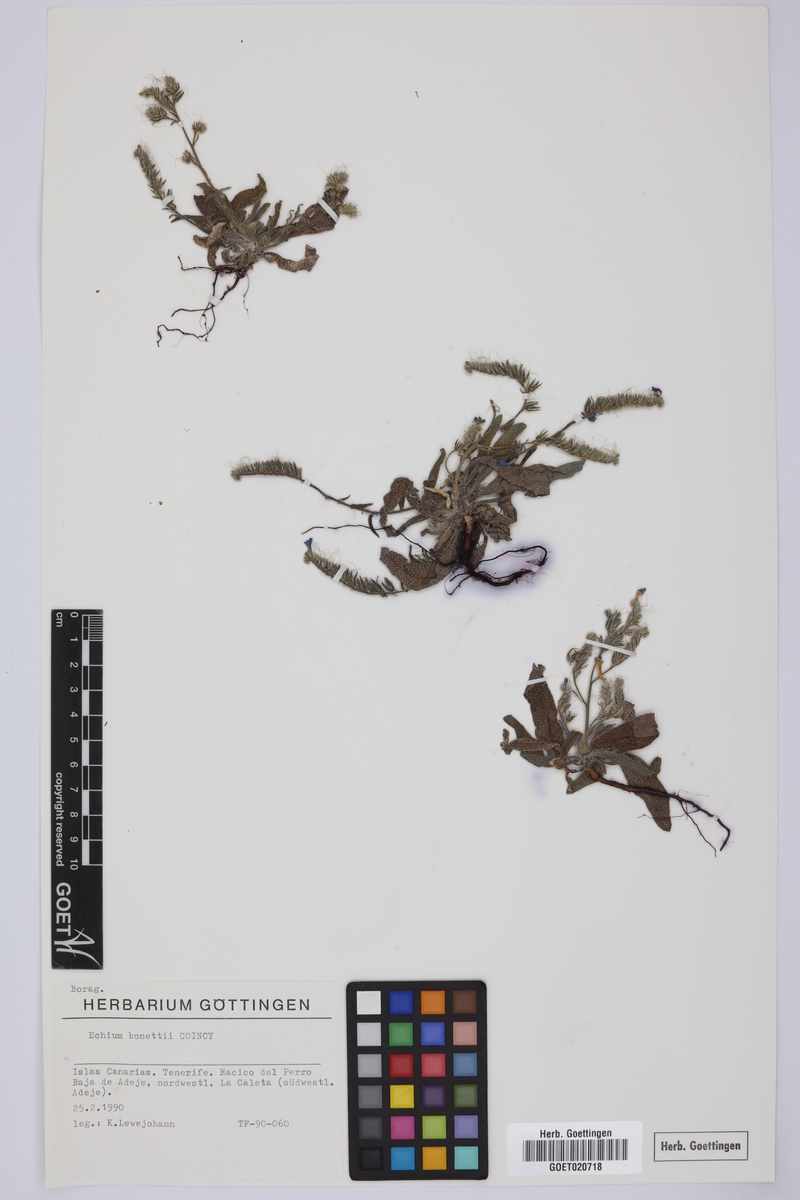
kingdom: Plantae
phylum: Tracheophyta
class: Magnoliopsida
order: Boraginales
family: Boraginaceae
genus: Echium
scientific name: Echium bonnetii
